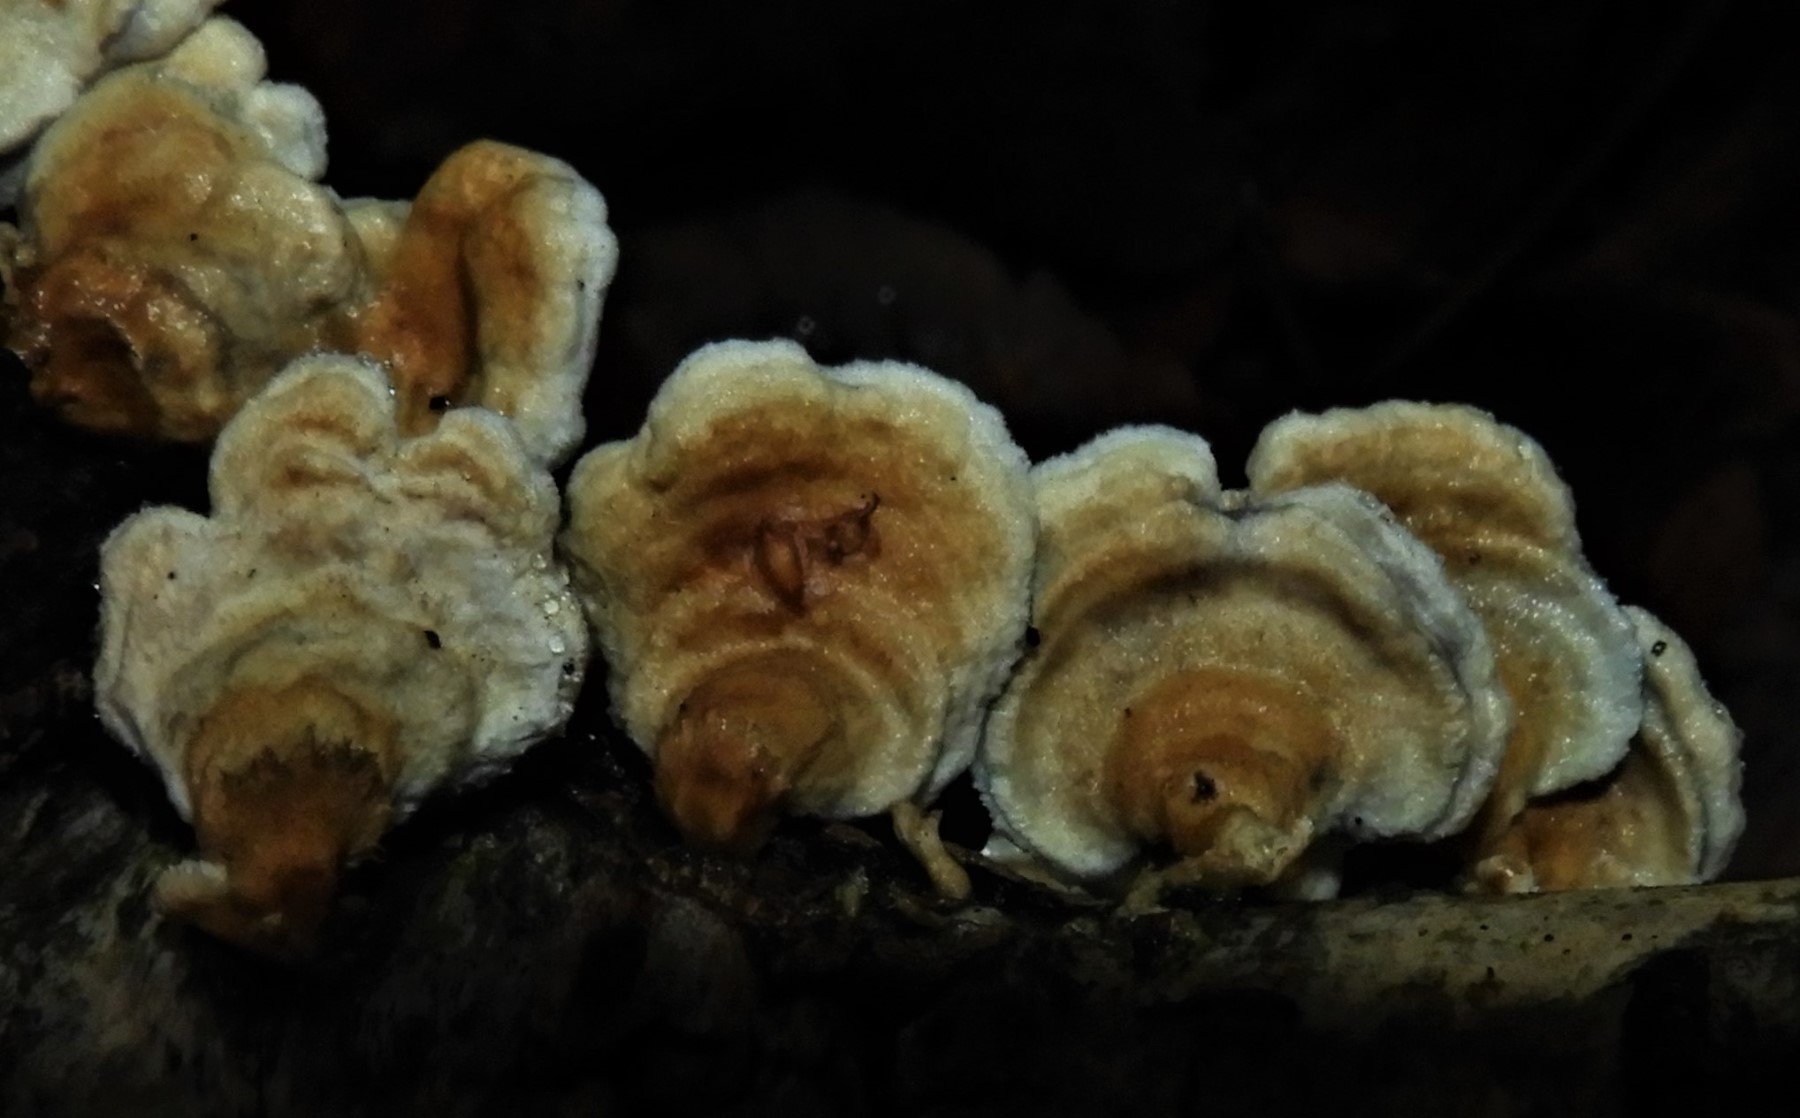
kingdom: Fungi
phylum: Basidiomycota
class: Agaricomycetes
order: Amylocorticiales
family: Amylocorticiaceae
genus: Plicaturopsis
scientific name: Plicaturopsis crispa
